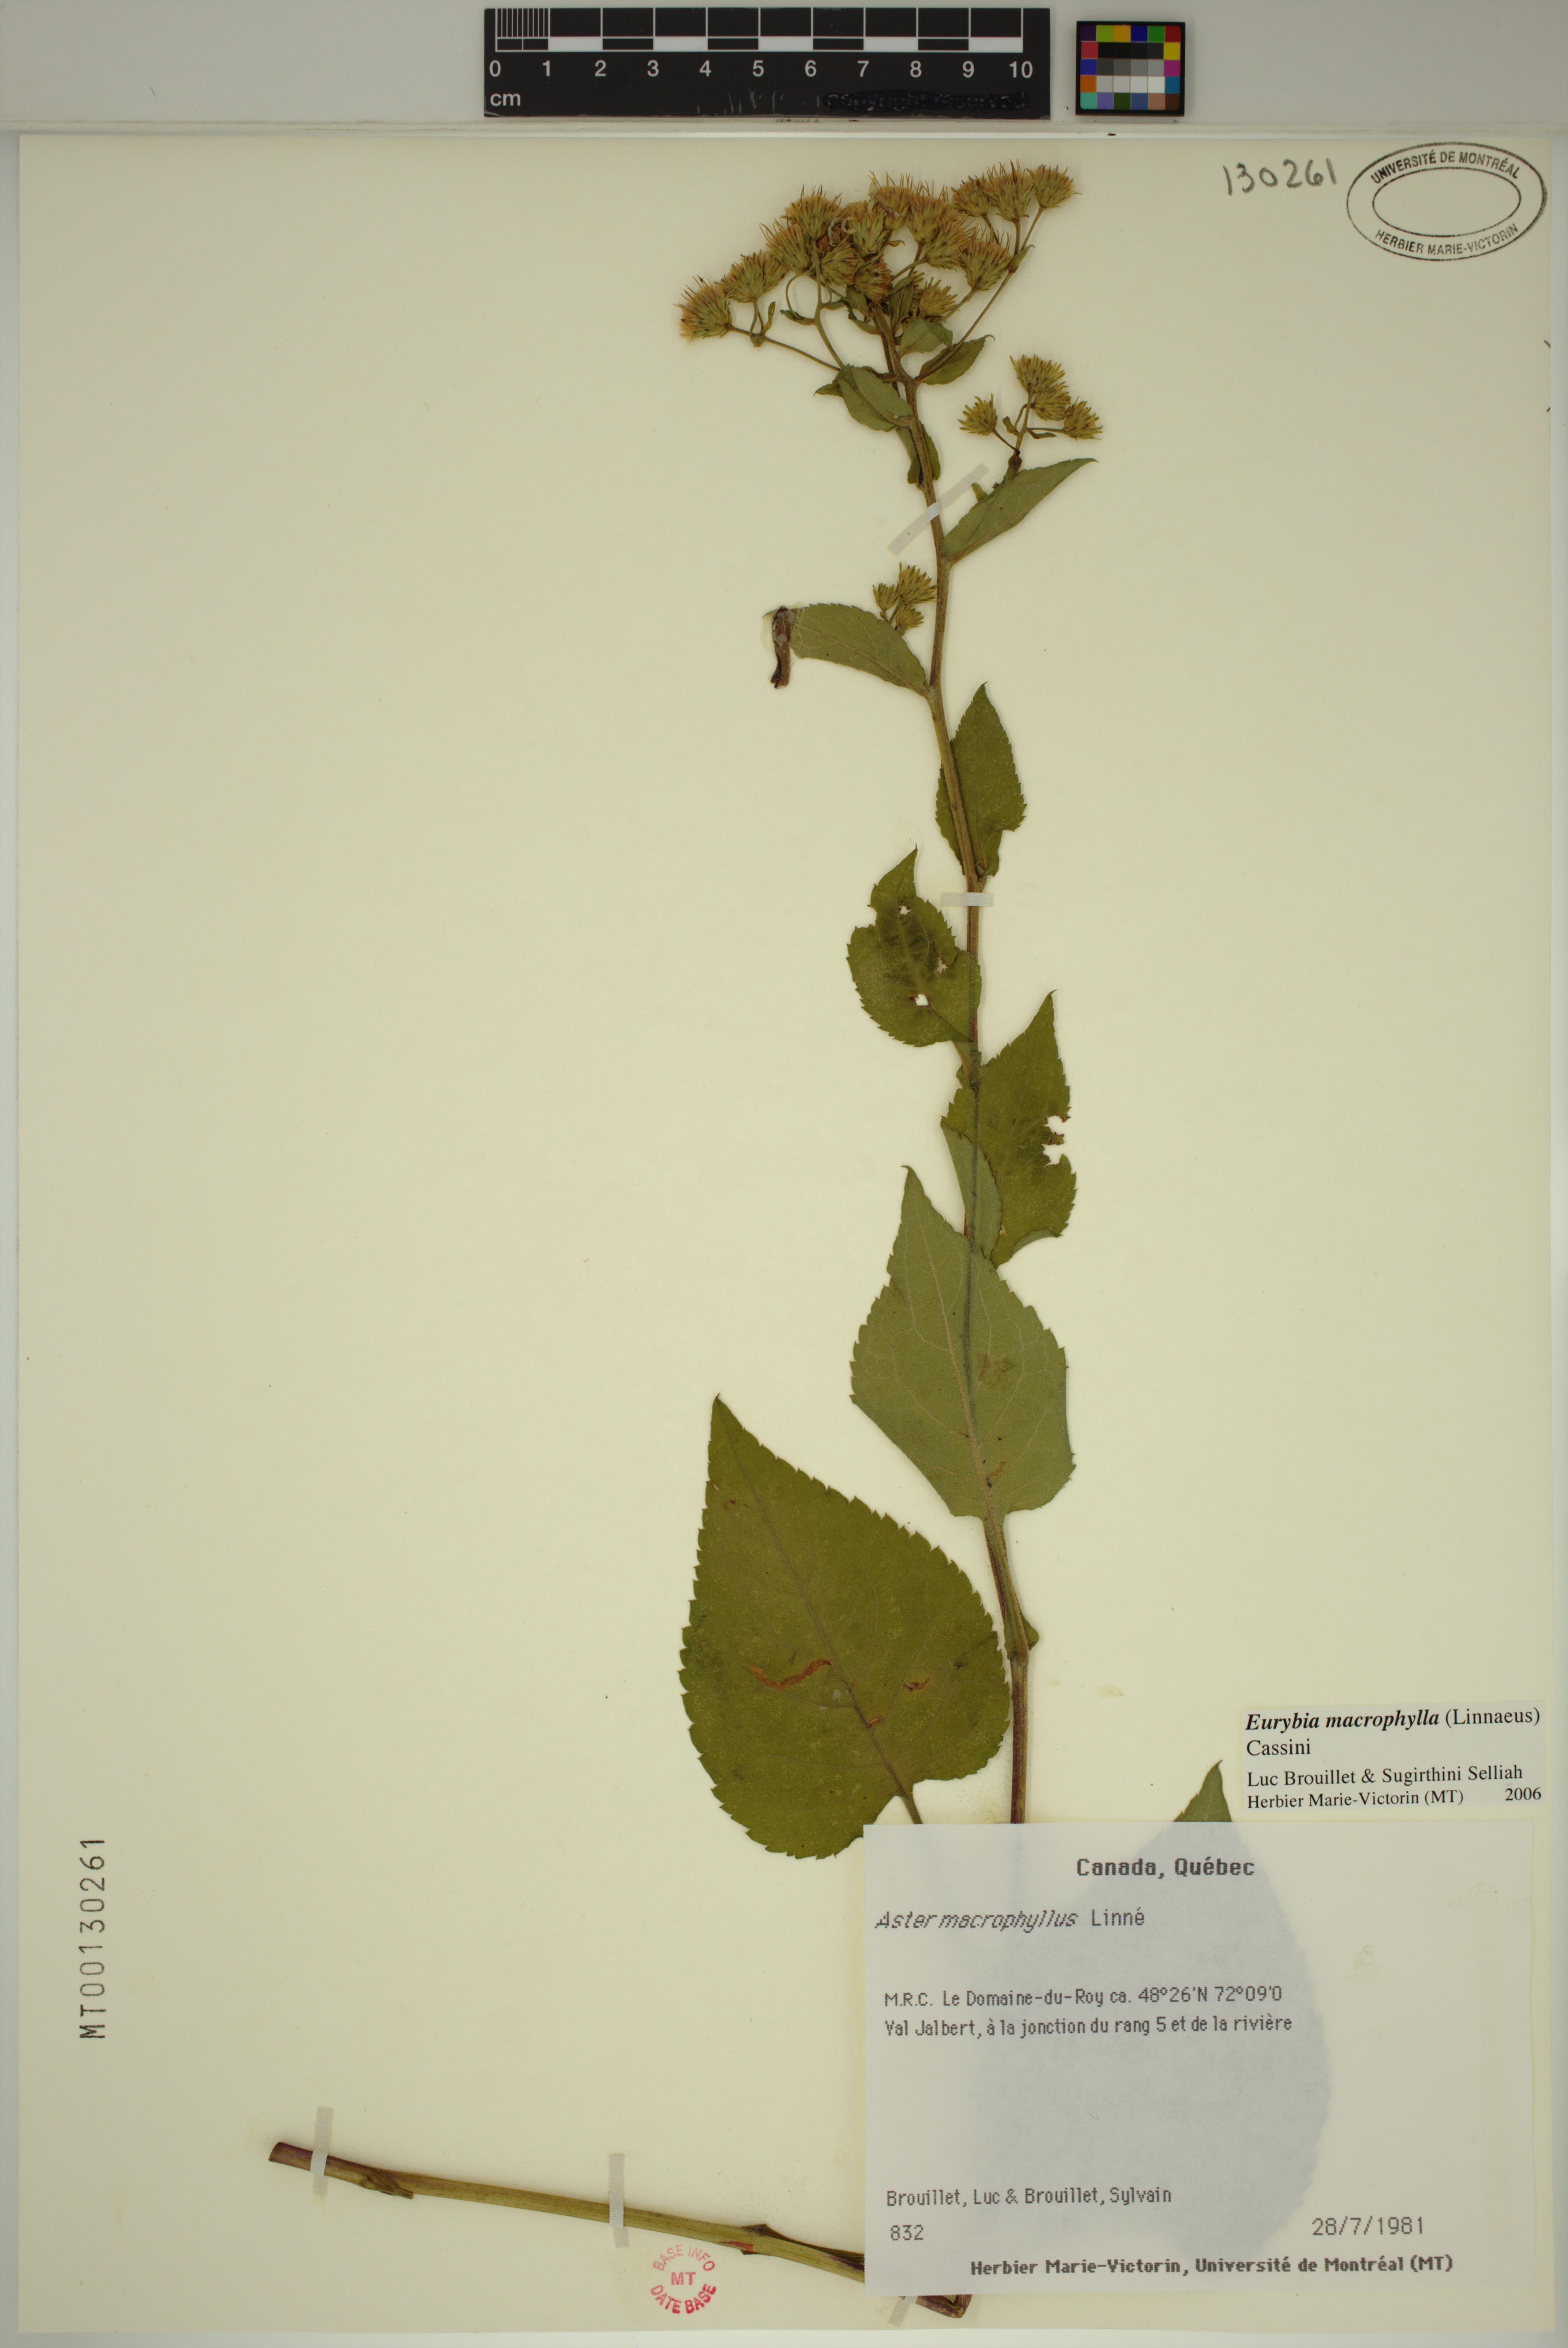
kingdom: Plantae
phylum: Tracheophyta
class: Magnoliopsida
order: Asterales
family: Asteraceae
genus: Eurybia
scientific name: Eurybia macrophylla
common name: Big-leaved aster
